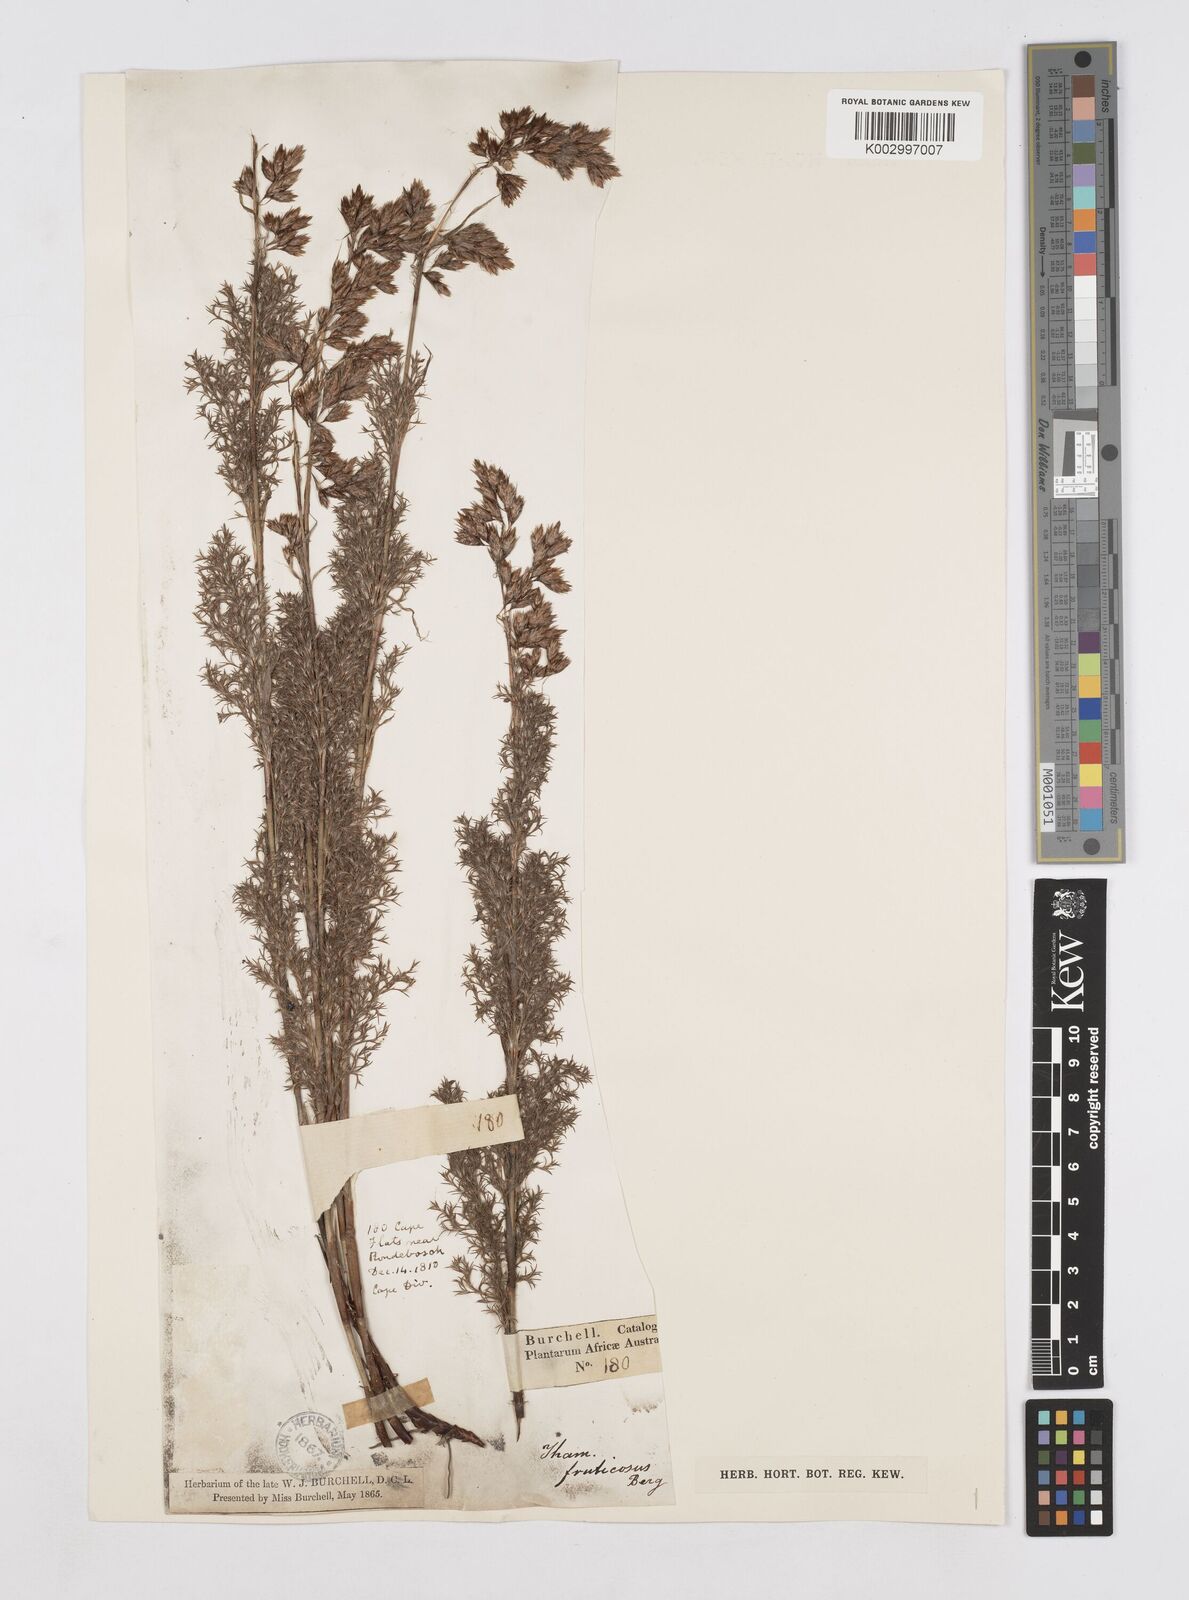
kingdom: Plantae
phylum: Tracheophyta
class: Liliopsida
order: Poales
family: Restionaceae
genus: Thamnochortus
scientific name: Thamnochortus fruticosus
